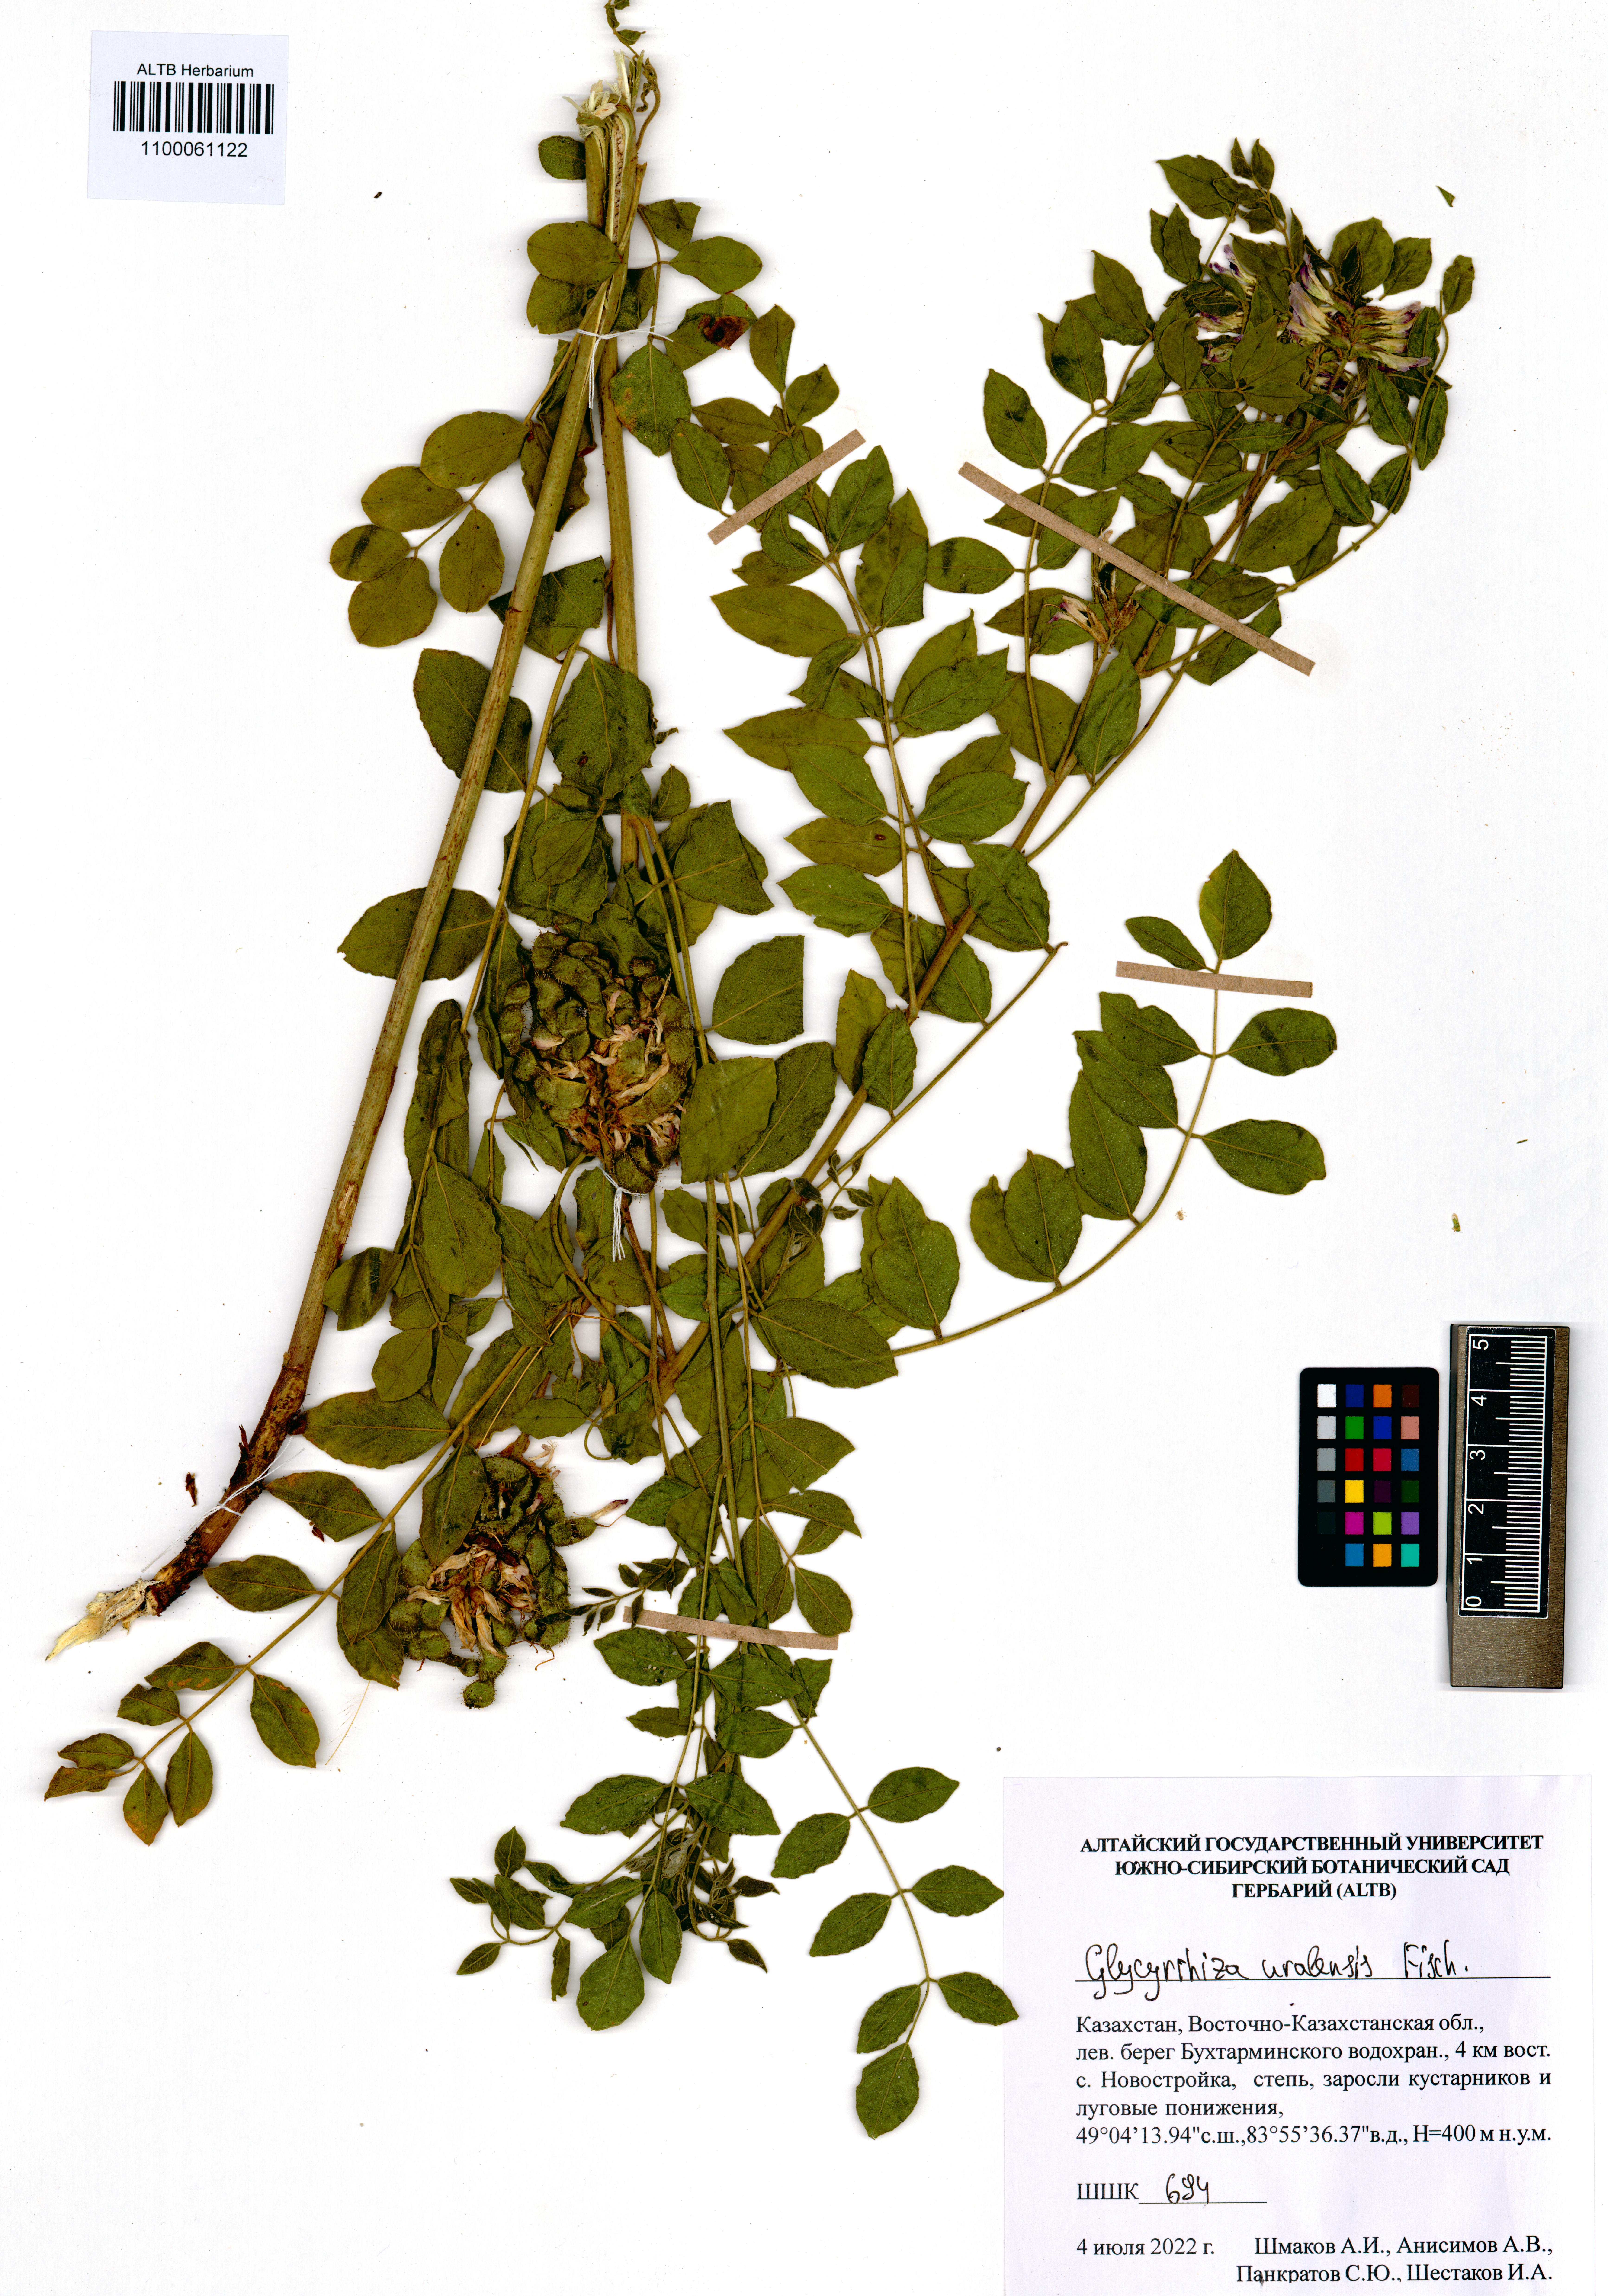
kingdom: Plantae
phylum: Tracheophyta
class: Magnoliopsida
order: Fabales
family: Fabaceae
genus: Glycyrrhiza
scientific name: Glycyrrhiza uralensis
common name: Chinese licorice
